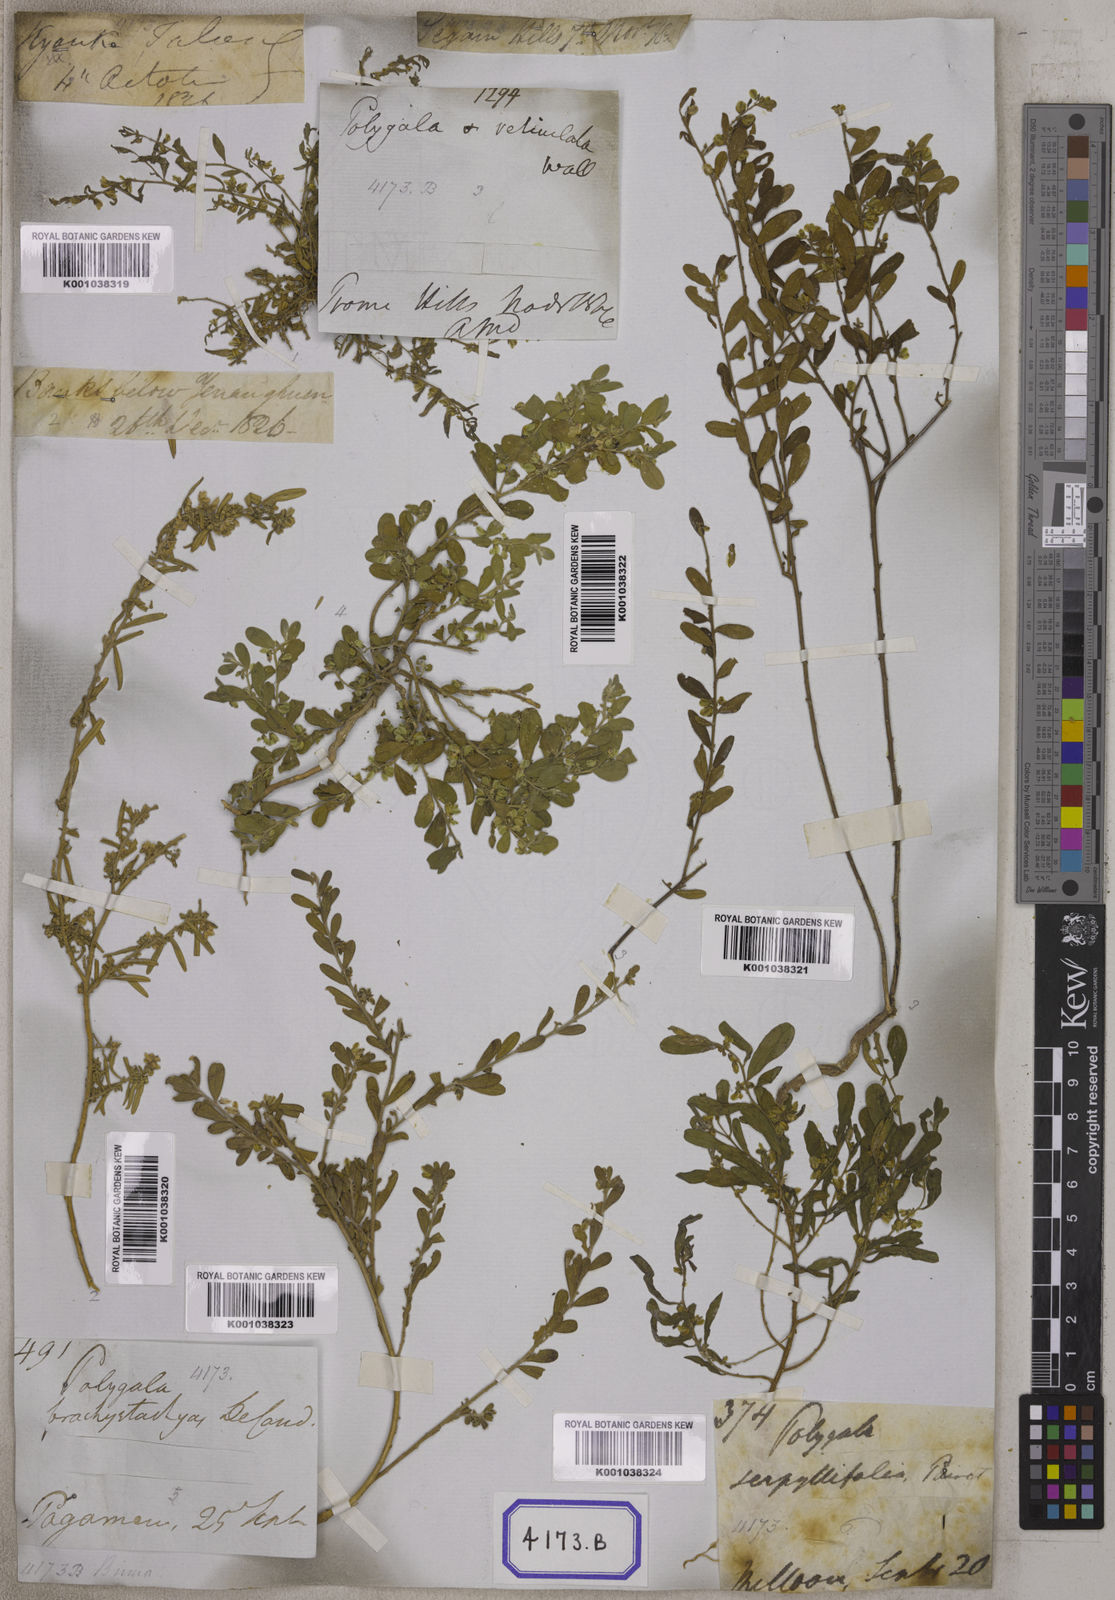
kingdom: Plantae
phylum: Tracheophyta
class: Magnoliopsida
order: Fabales
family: Polygalaceae
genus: Polygala
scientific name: Polygala
